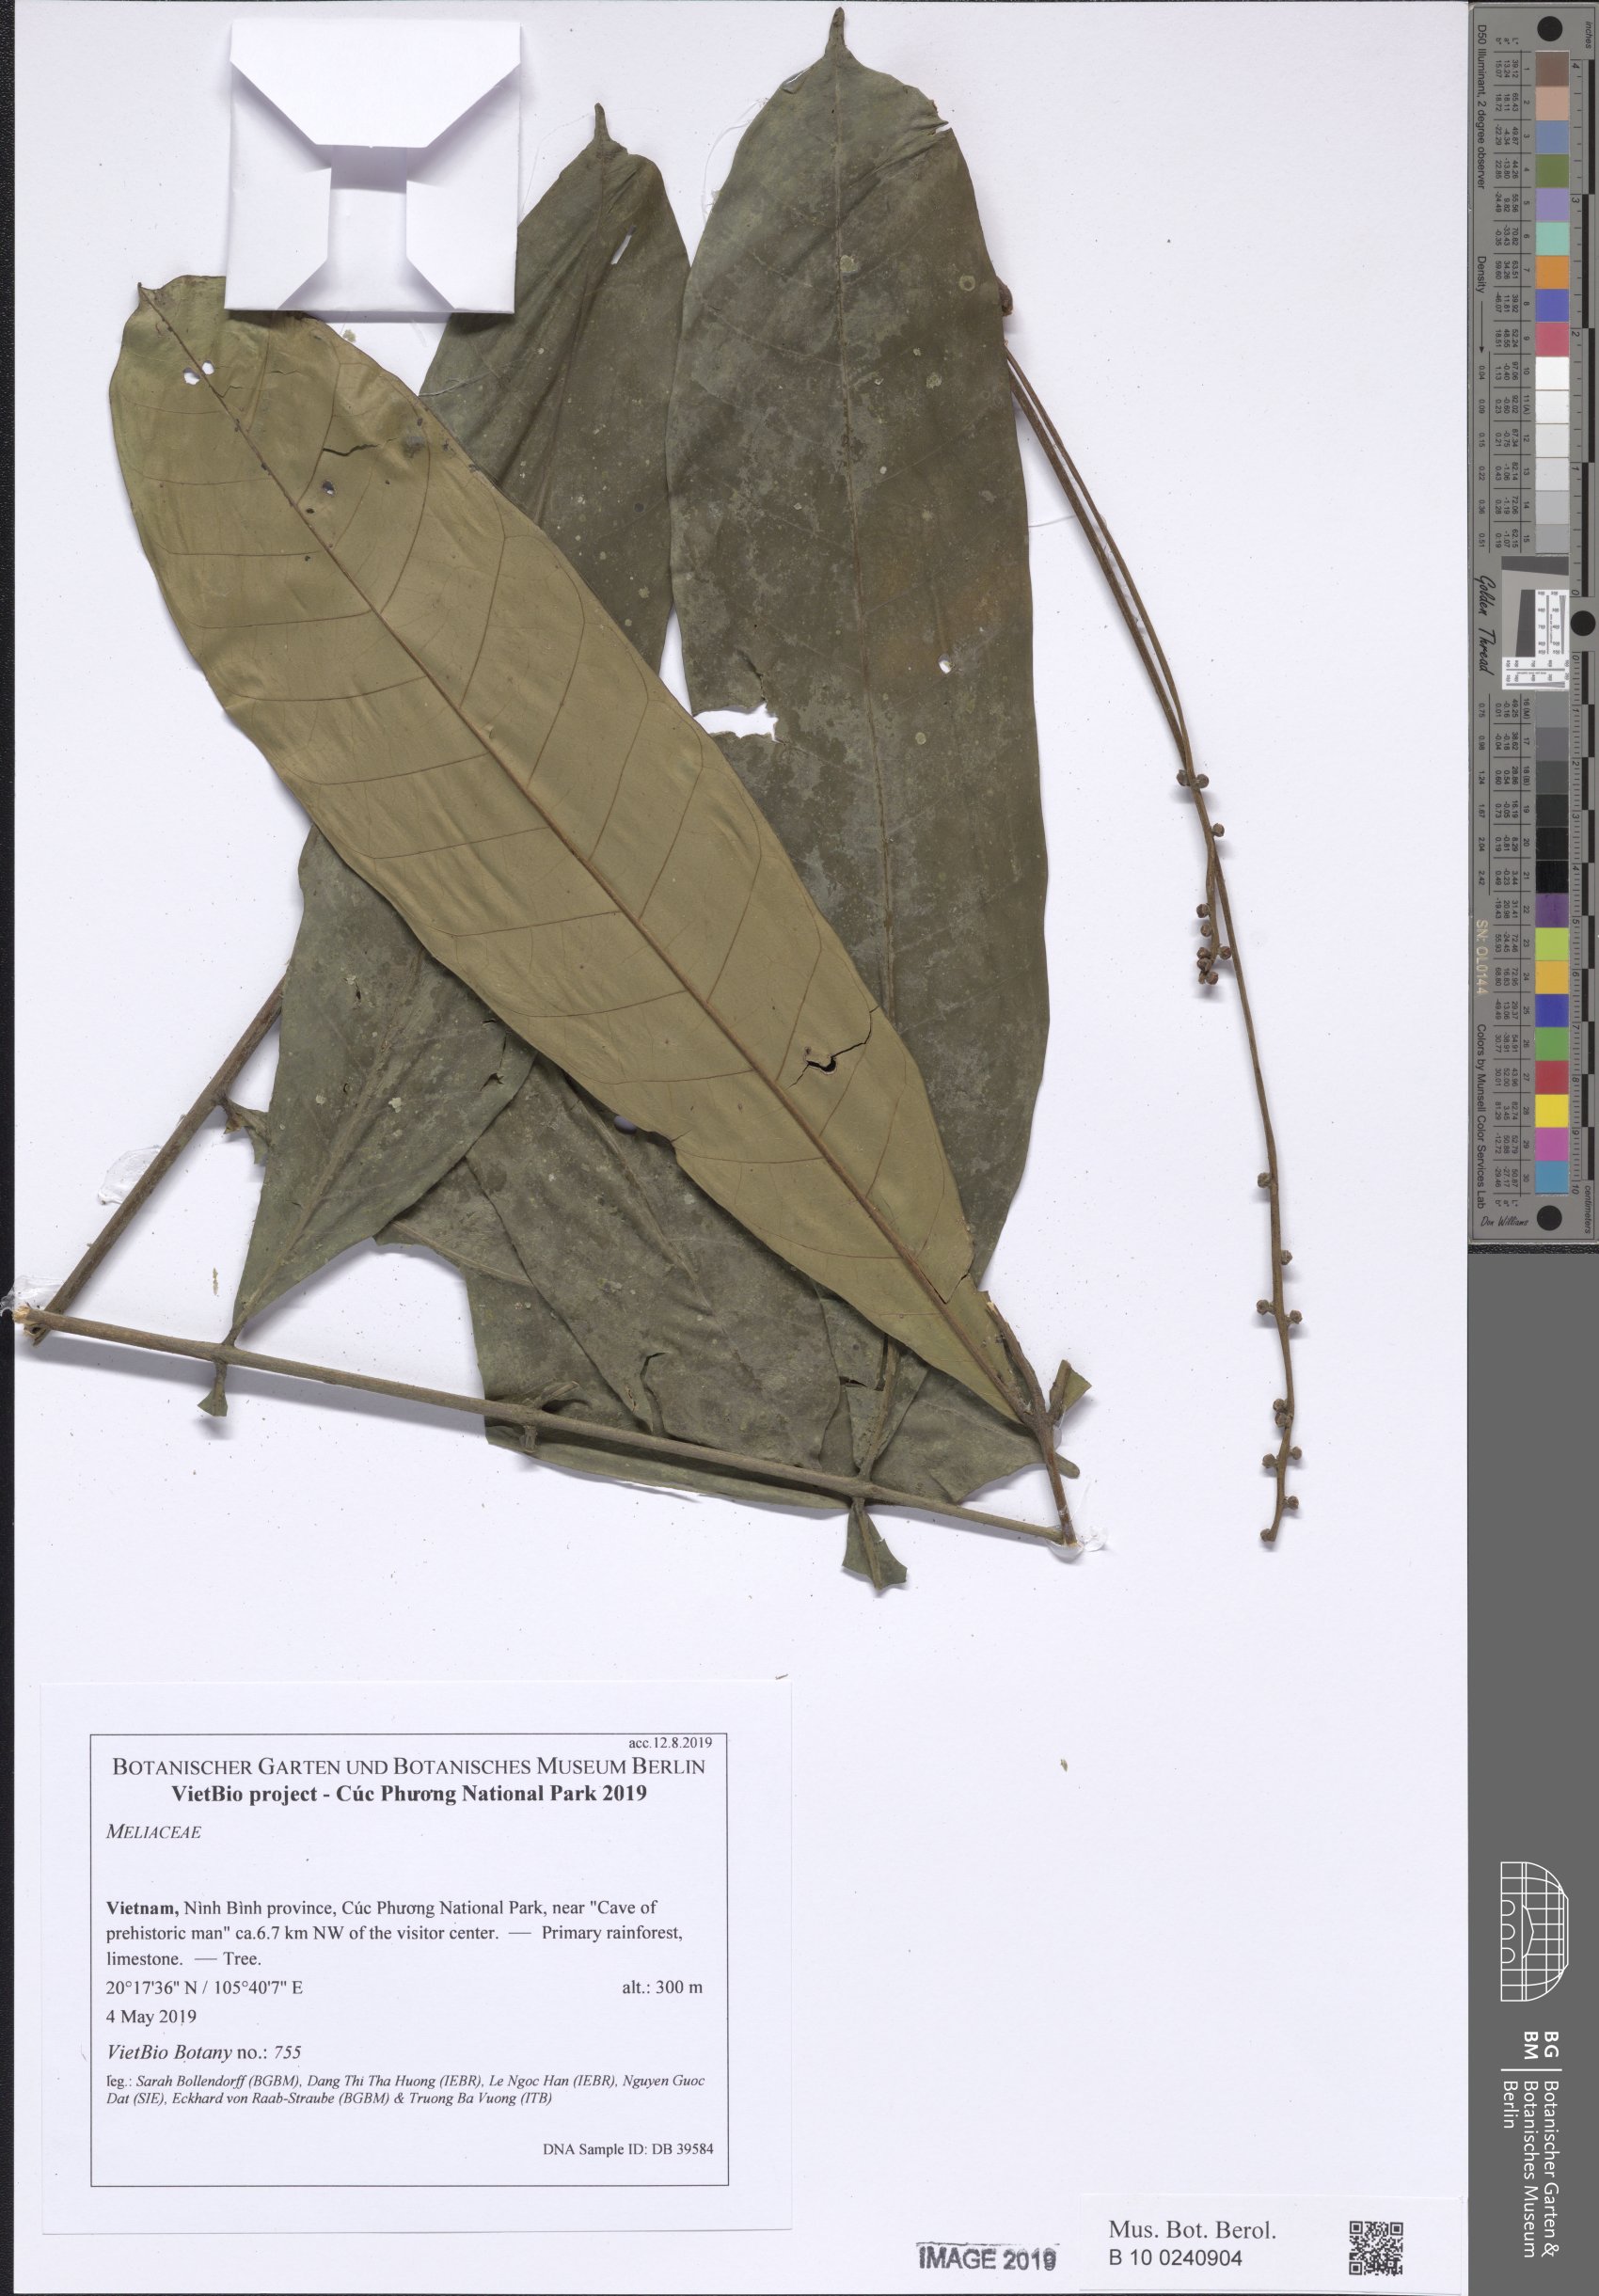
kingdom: Plantae
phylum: Tracheophyta
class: Magnoliopsida
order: Sapindales
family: Meliaceae
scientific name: Meliaceae
